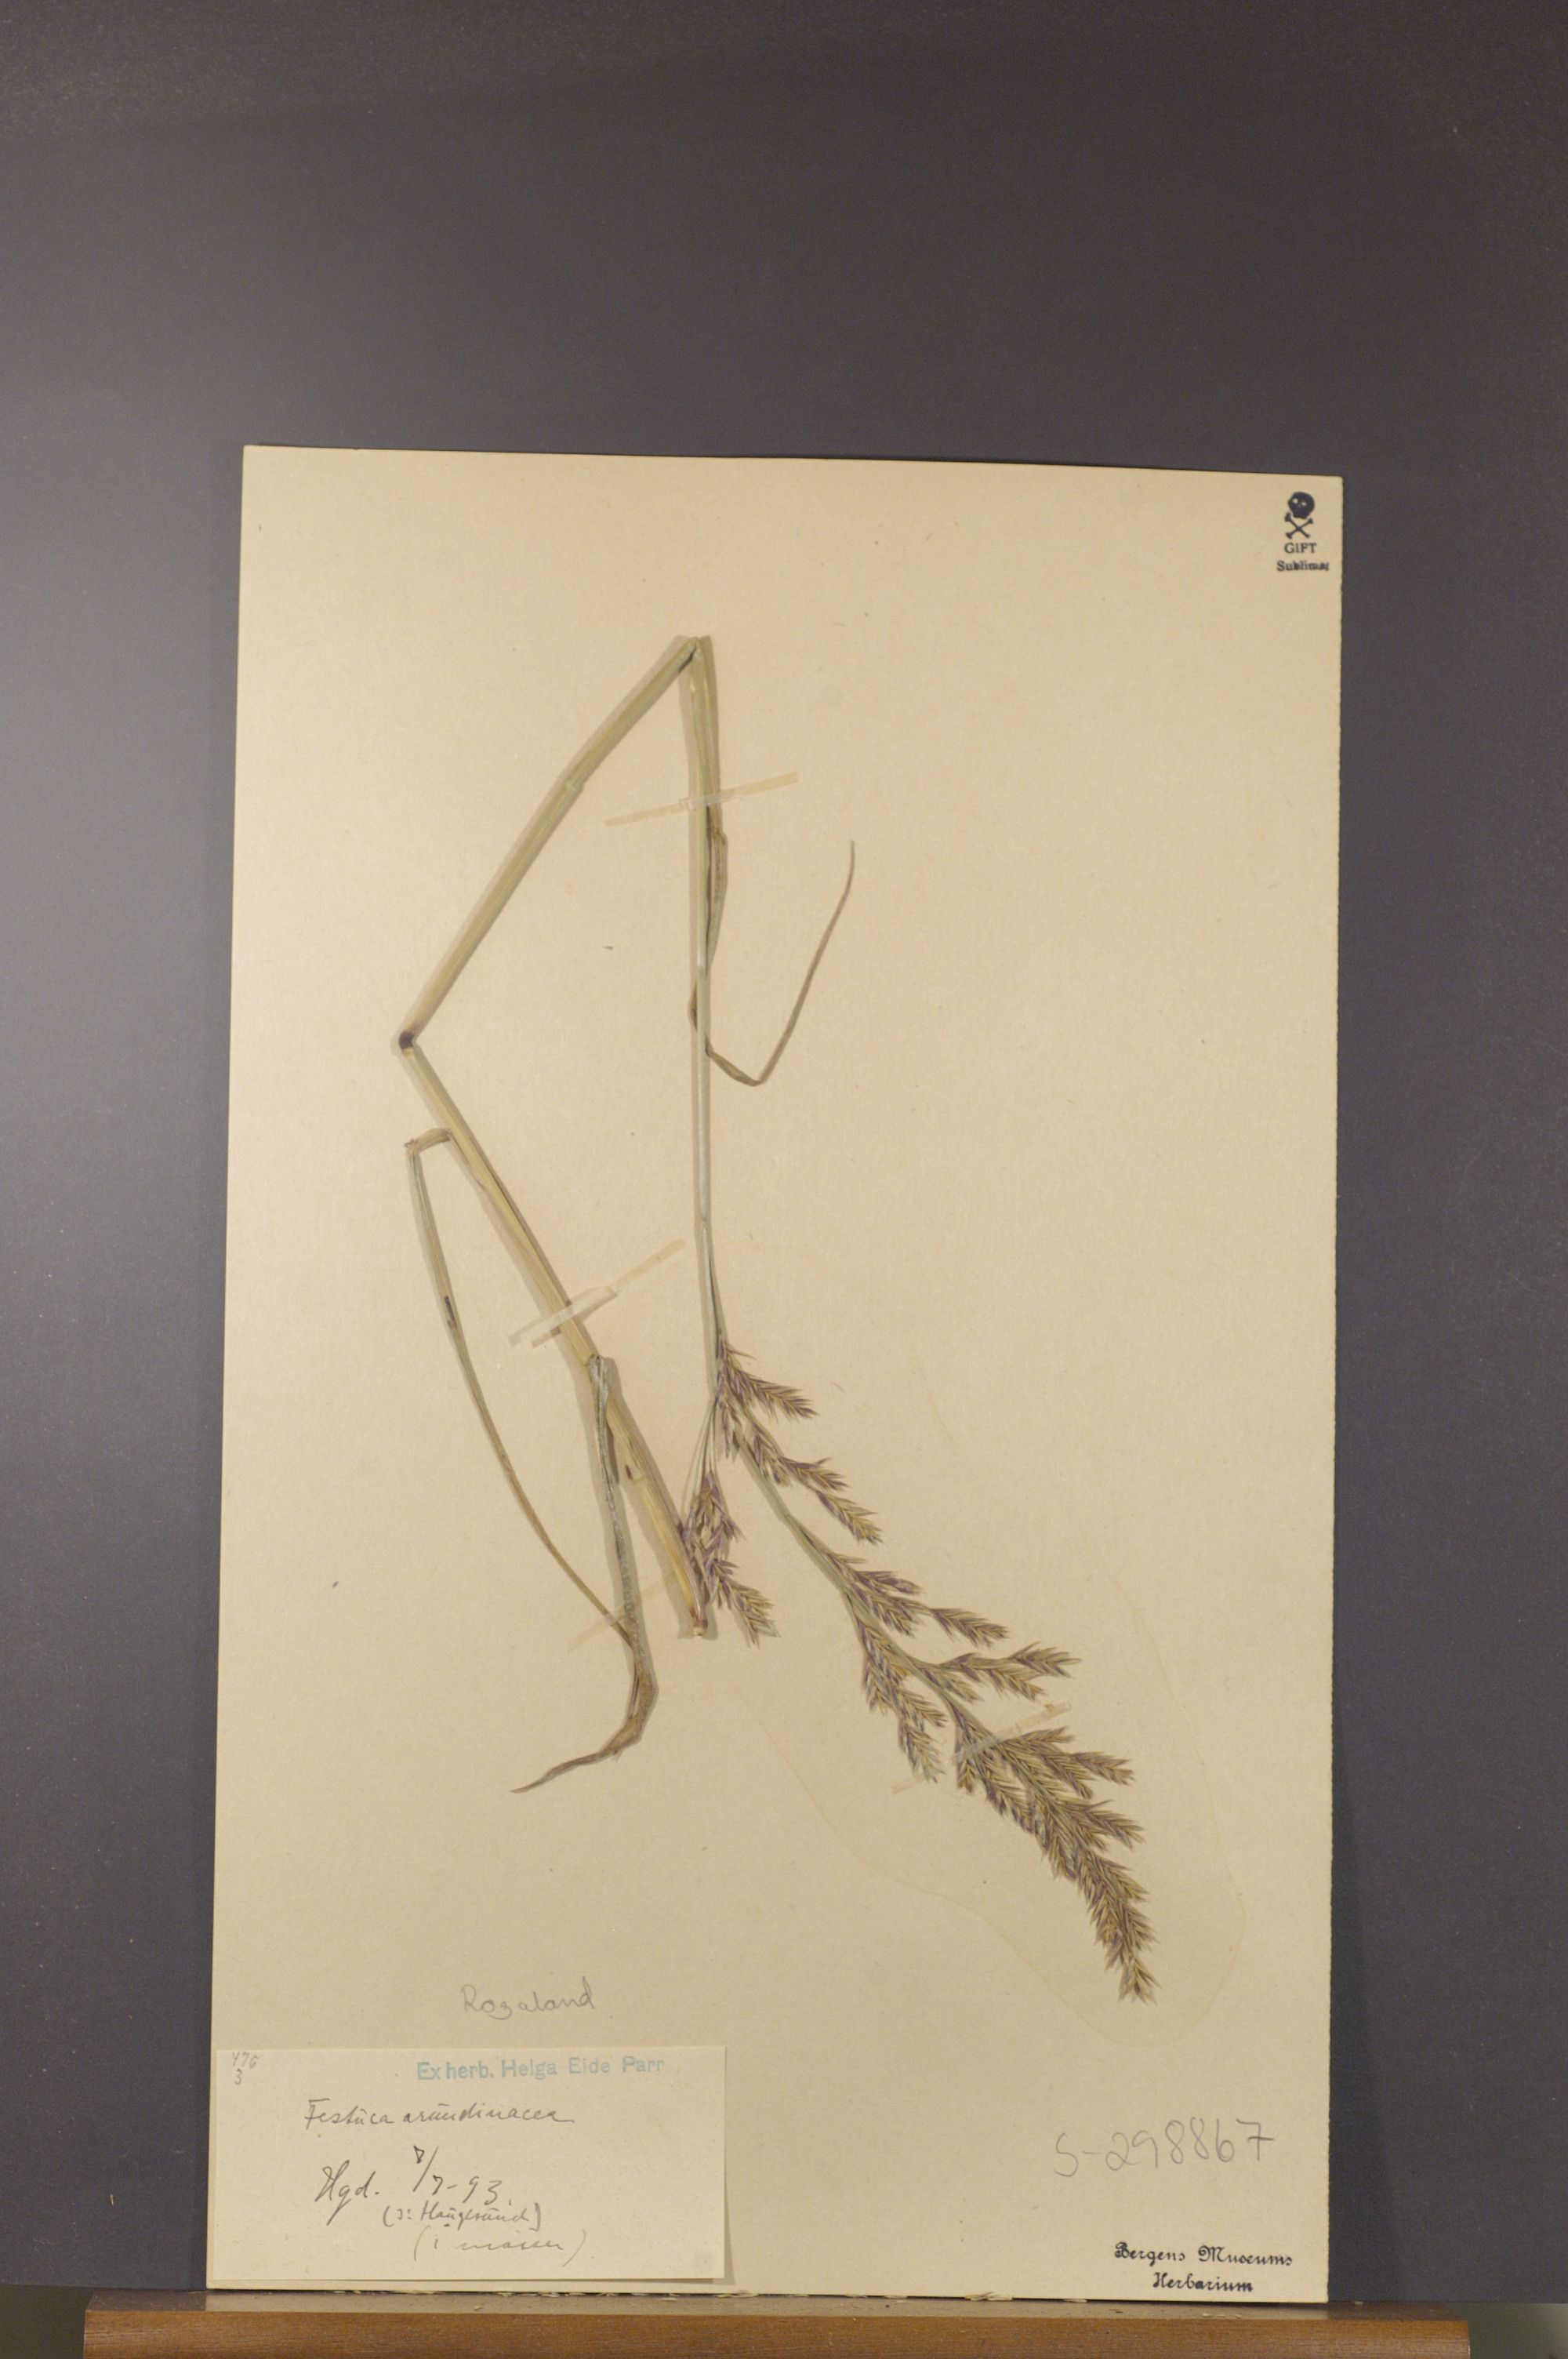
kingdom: Plantae
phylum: Tracheophyta
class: Liliopsida
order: Poales
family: Poaceae
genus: Lolium
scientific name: Lolium arundinaceum
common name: Reed fescue
